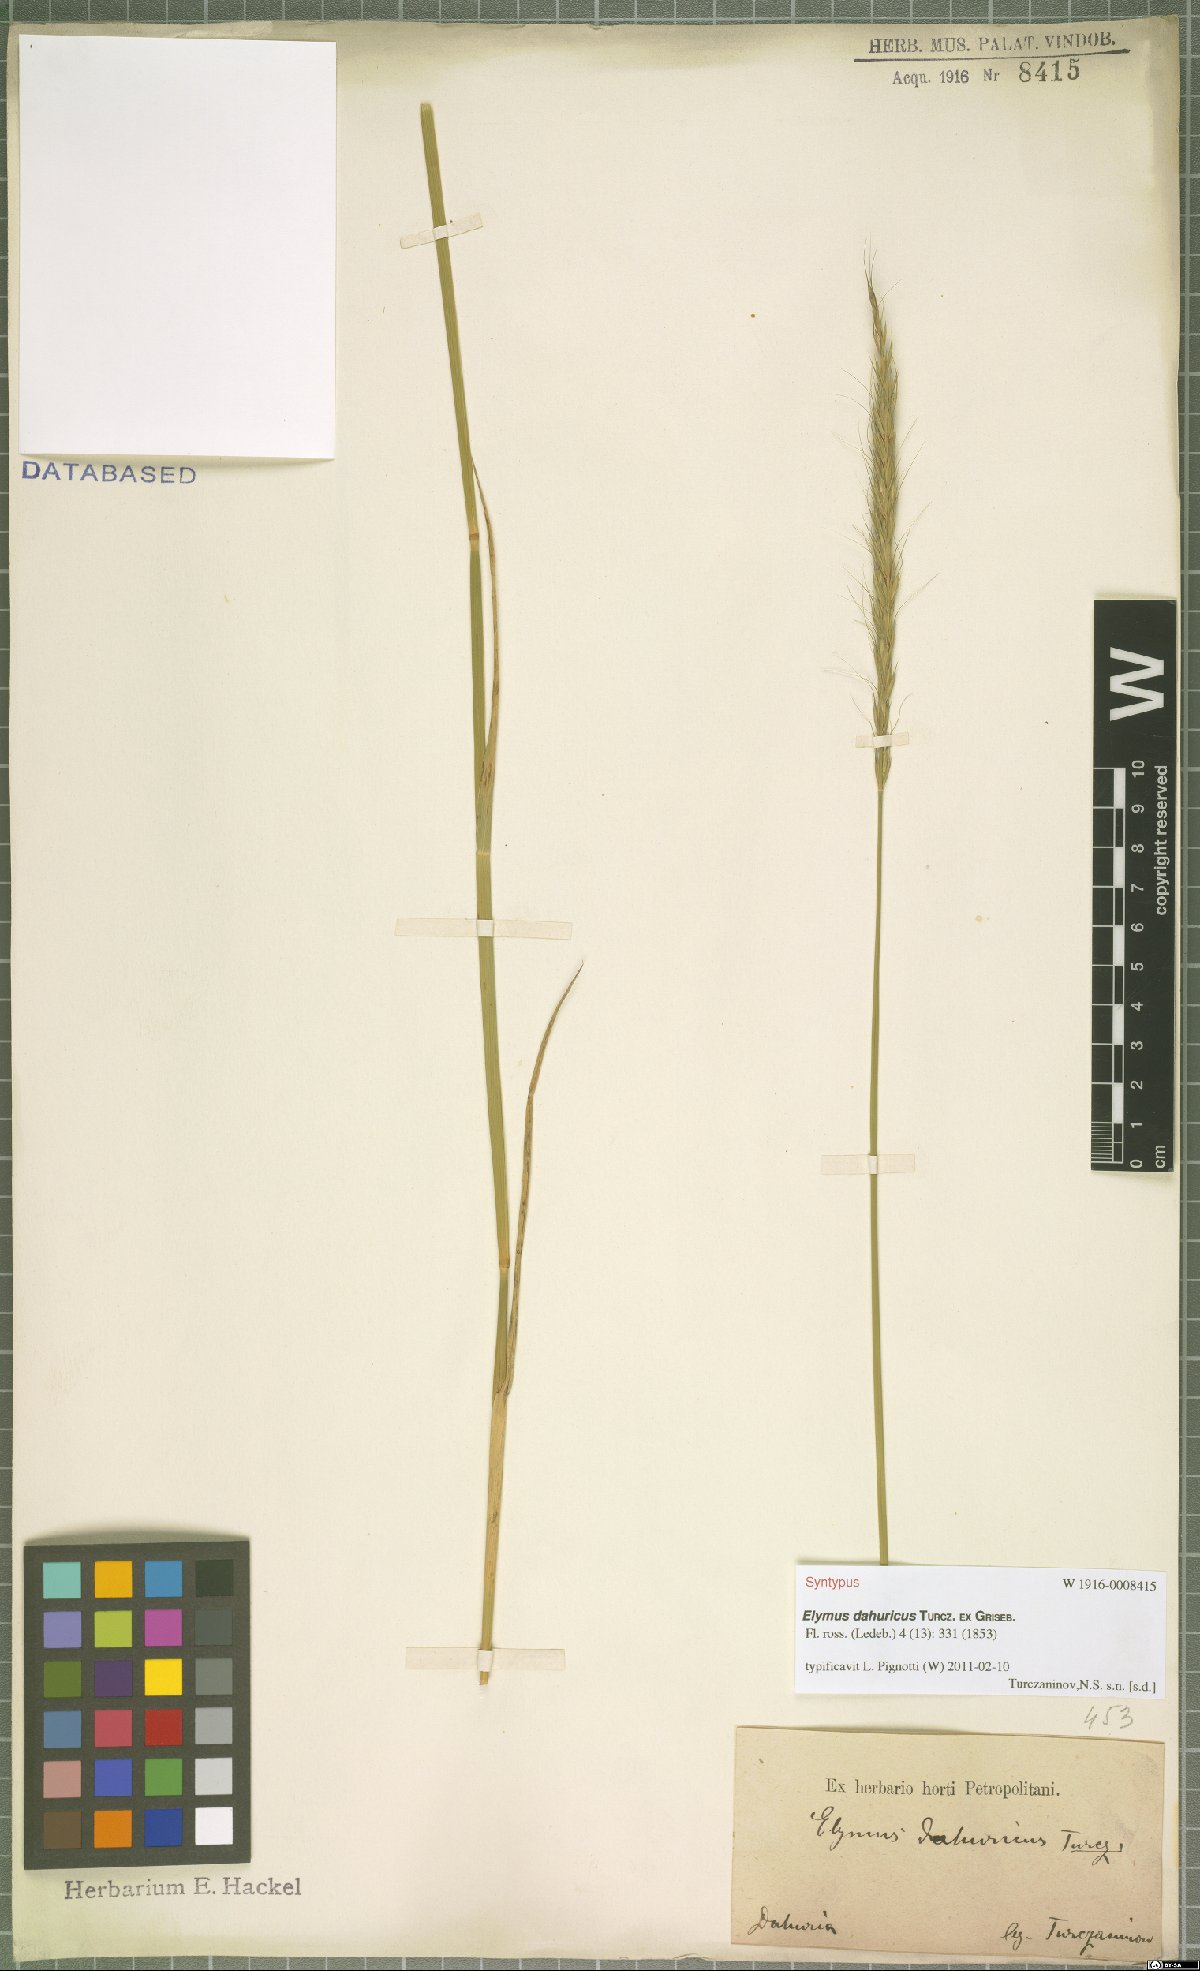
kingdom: Plantae
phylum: Tracheophyta
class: Liliopsida
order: Poales
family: Poaceae
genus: Elymus
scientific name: Elymus dahuricus
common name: Dahurian wild rye
